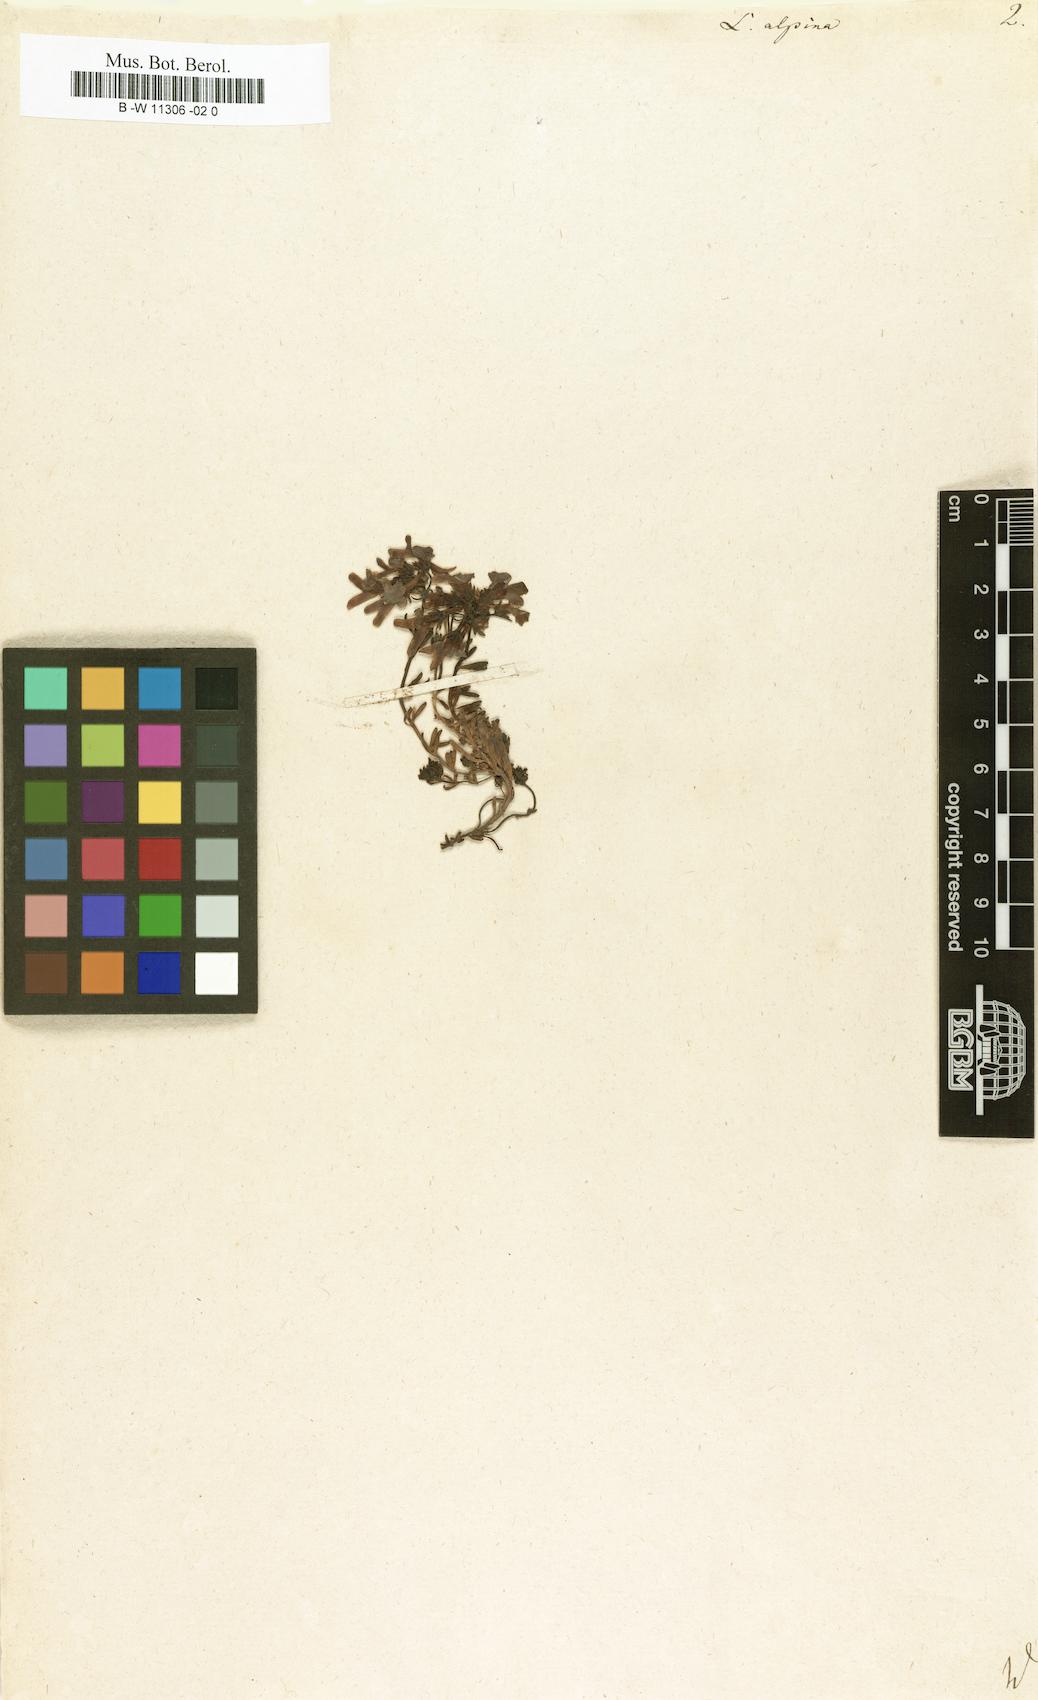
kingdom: Plantae
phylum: Tracheophyta
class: Magnoliopsida
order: Lamiales
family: Plantaginaceae
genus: Linaria
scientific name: Linaria alpina
